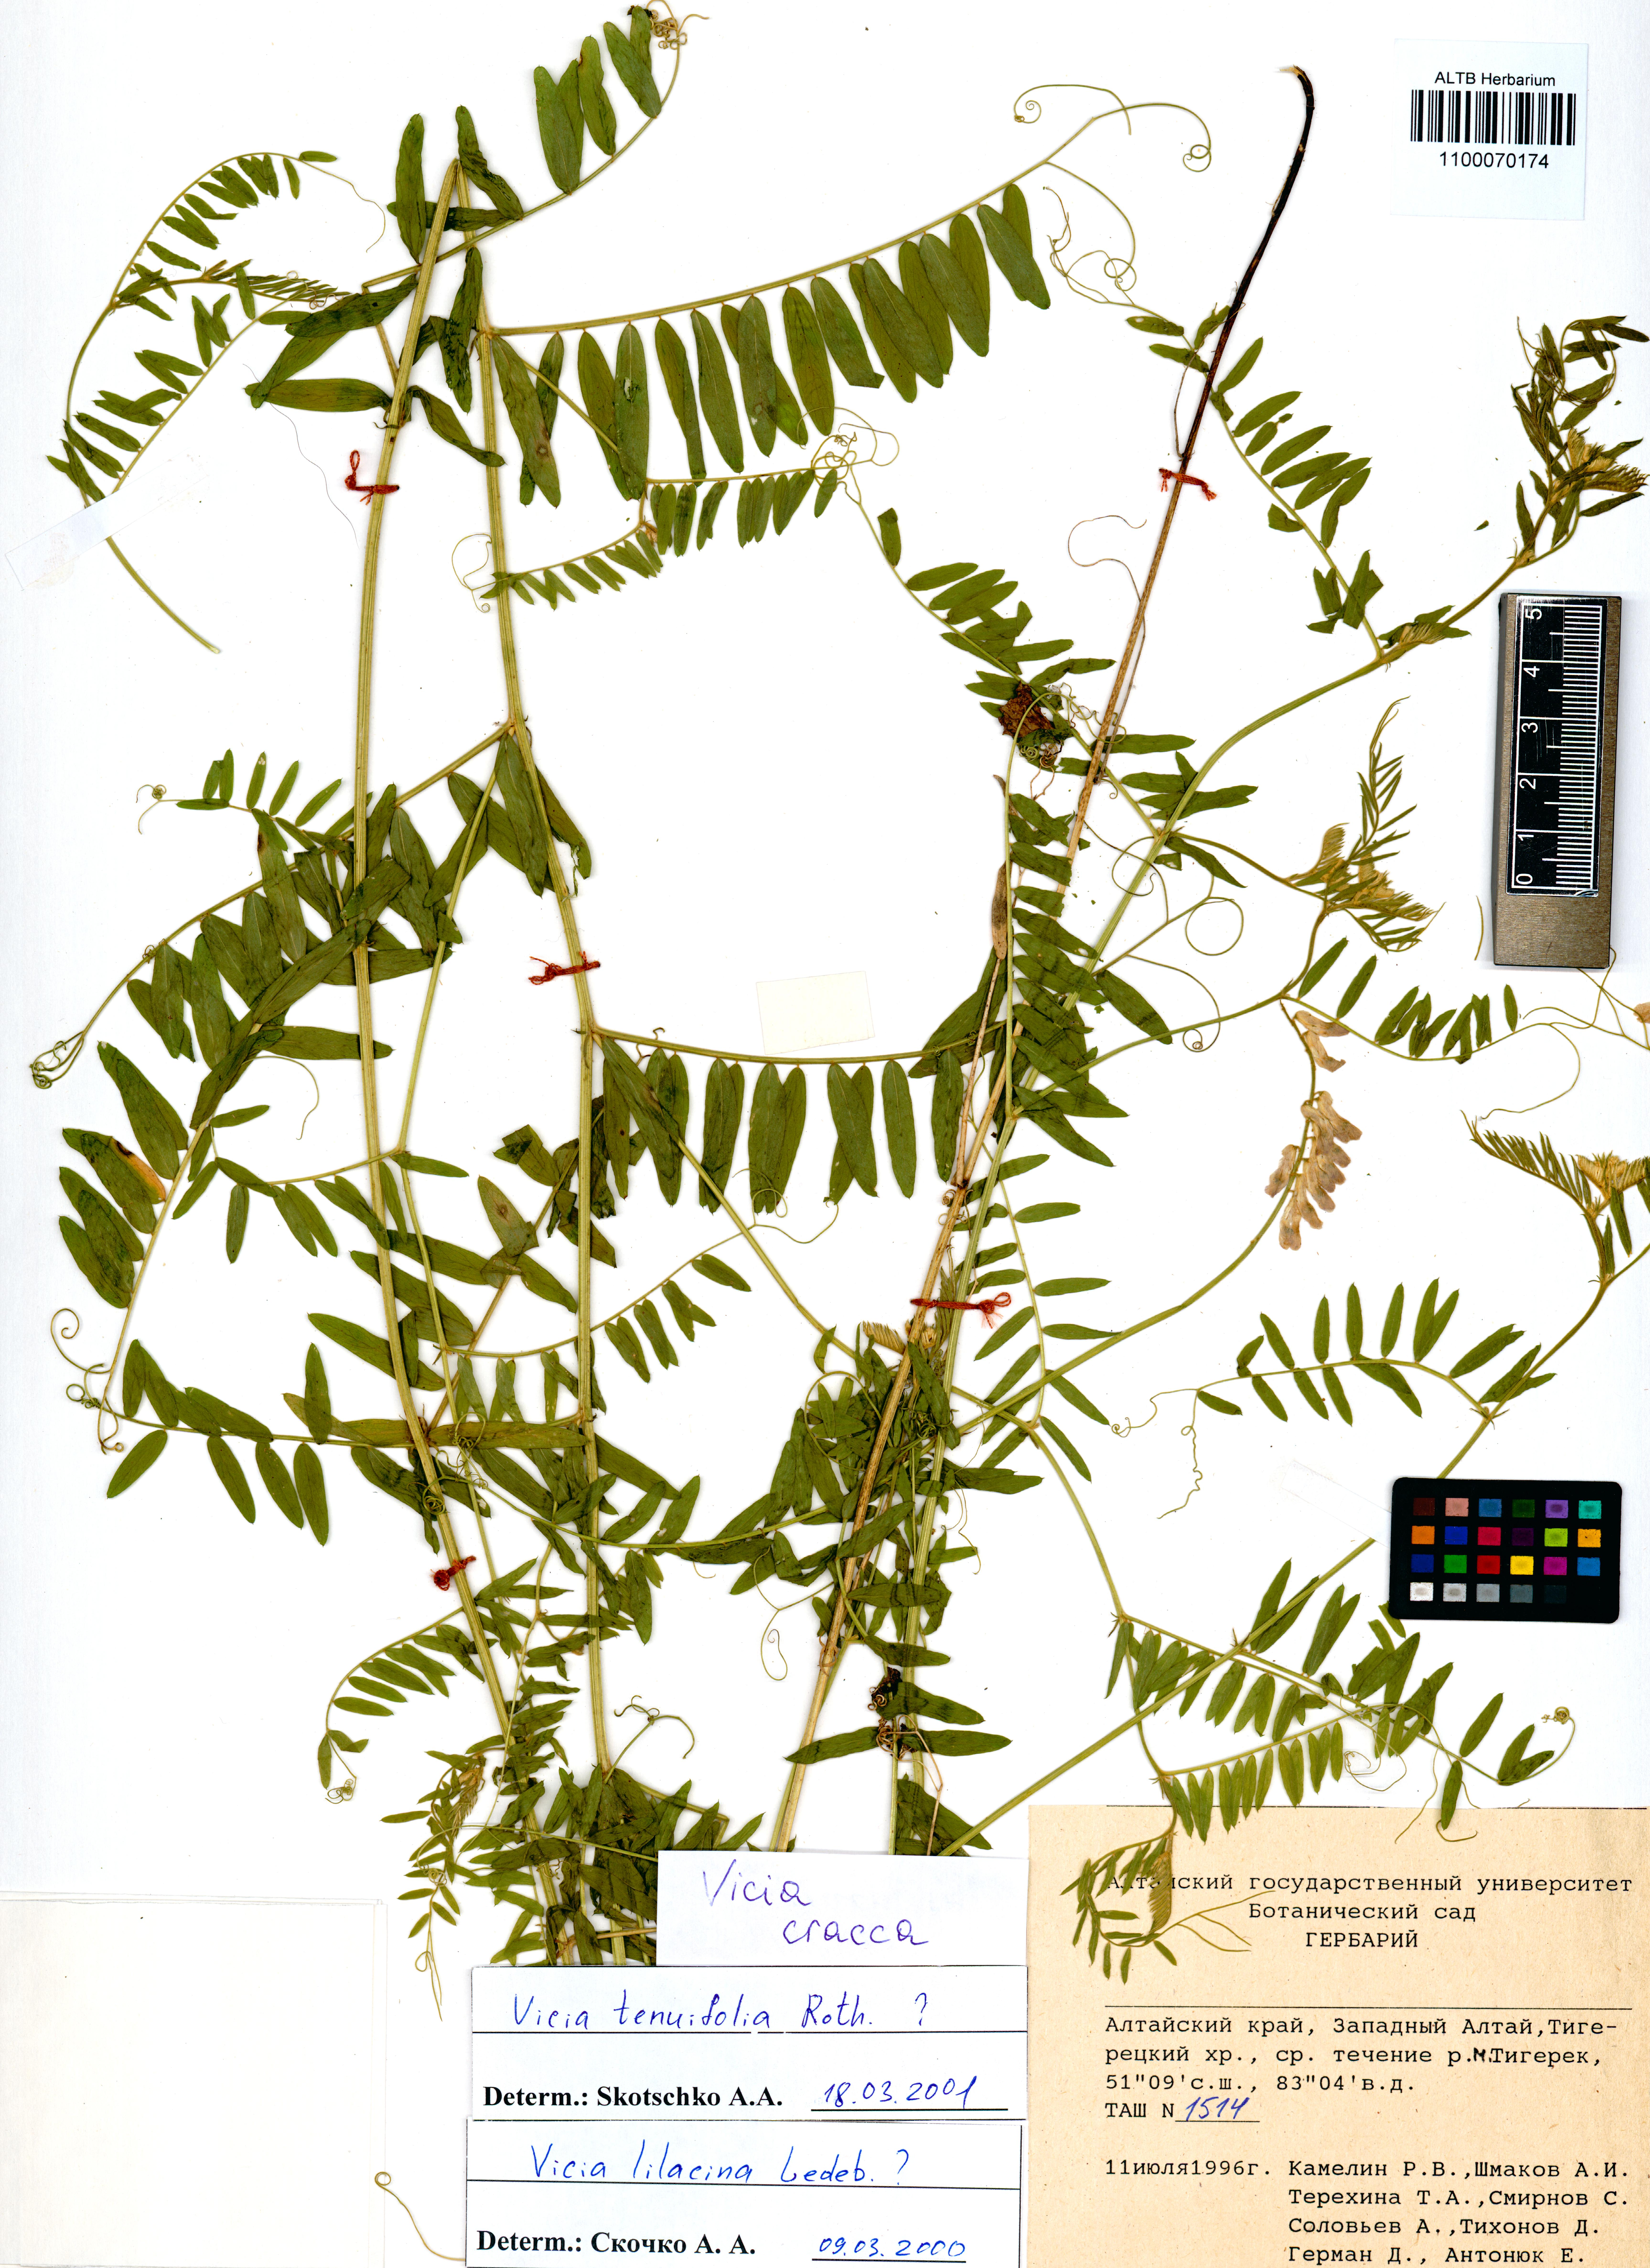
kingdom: Plantae
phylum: Tracheophyta
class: Magnoliopsida
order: Fabales
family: Fabaceae
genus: Vicia
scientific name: Vicia cracca
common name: Bird vetch
